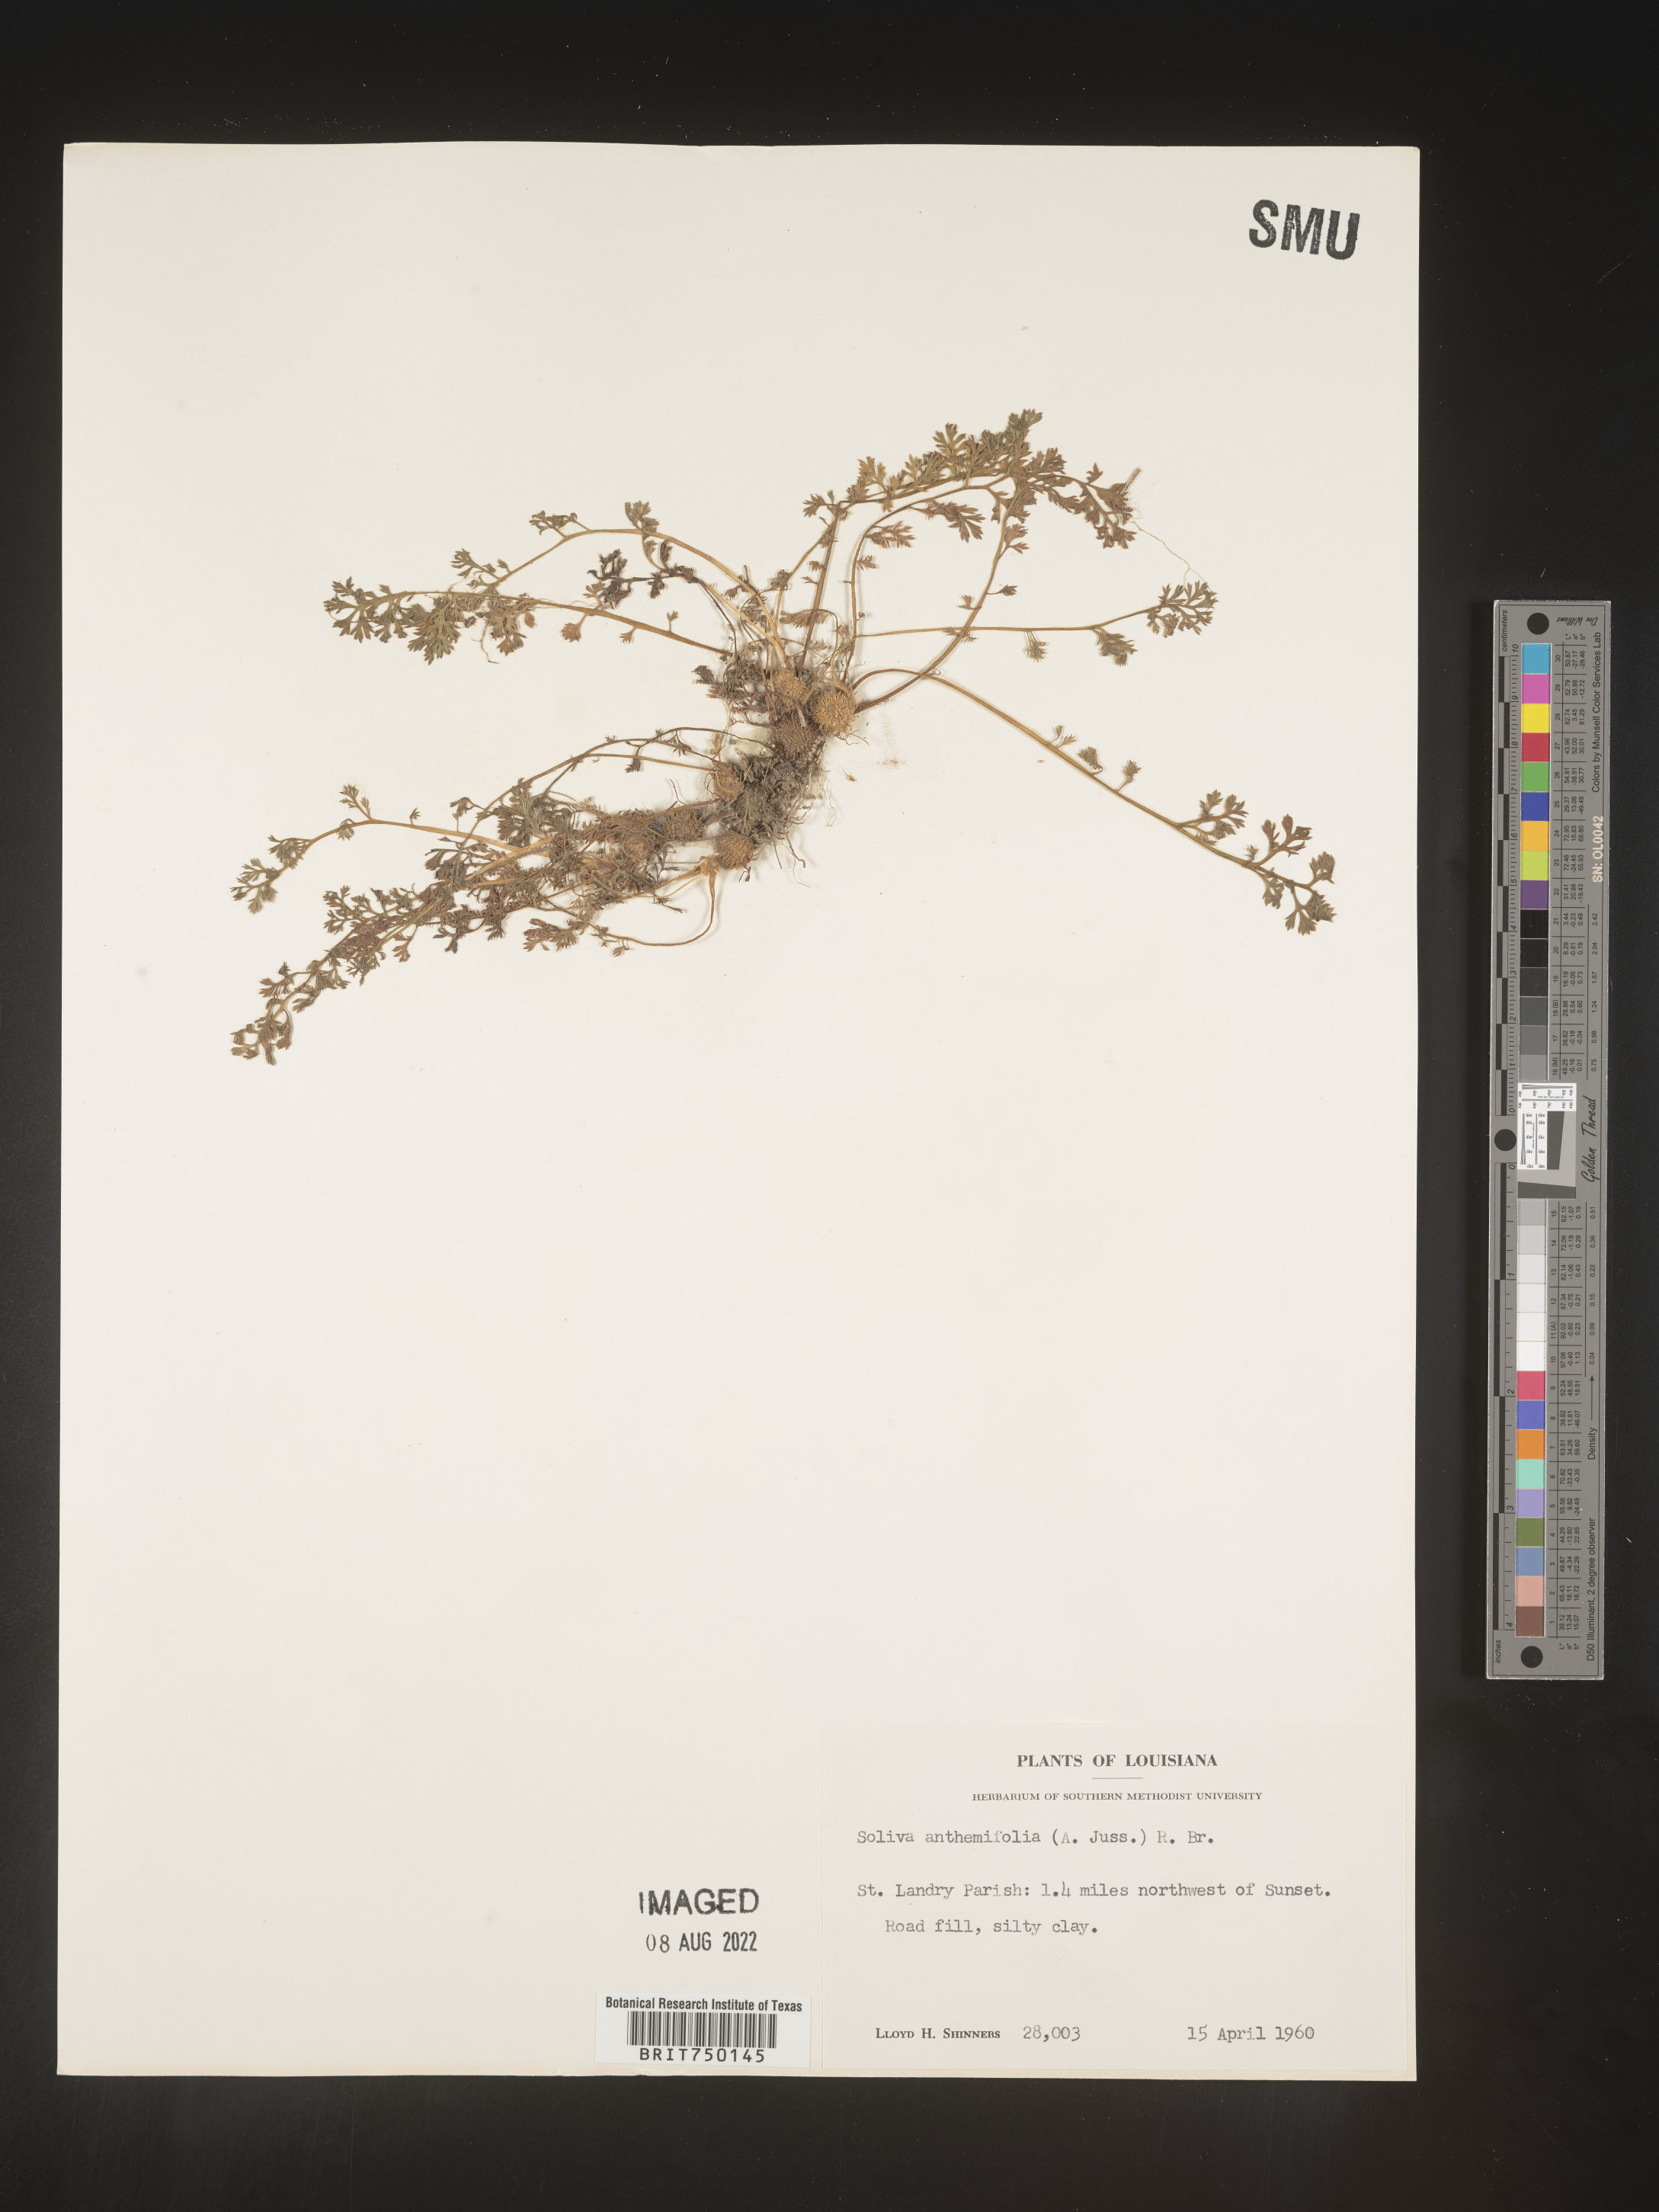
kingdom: Plantae
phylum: Tracheophyta
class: Magnoliopsida
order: Asterales
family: Asteraceae
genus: Soliva
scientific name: Soliva
